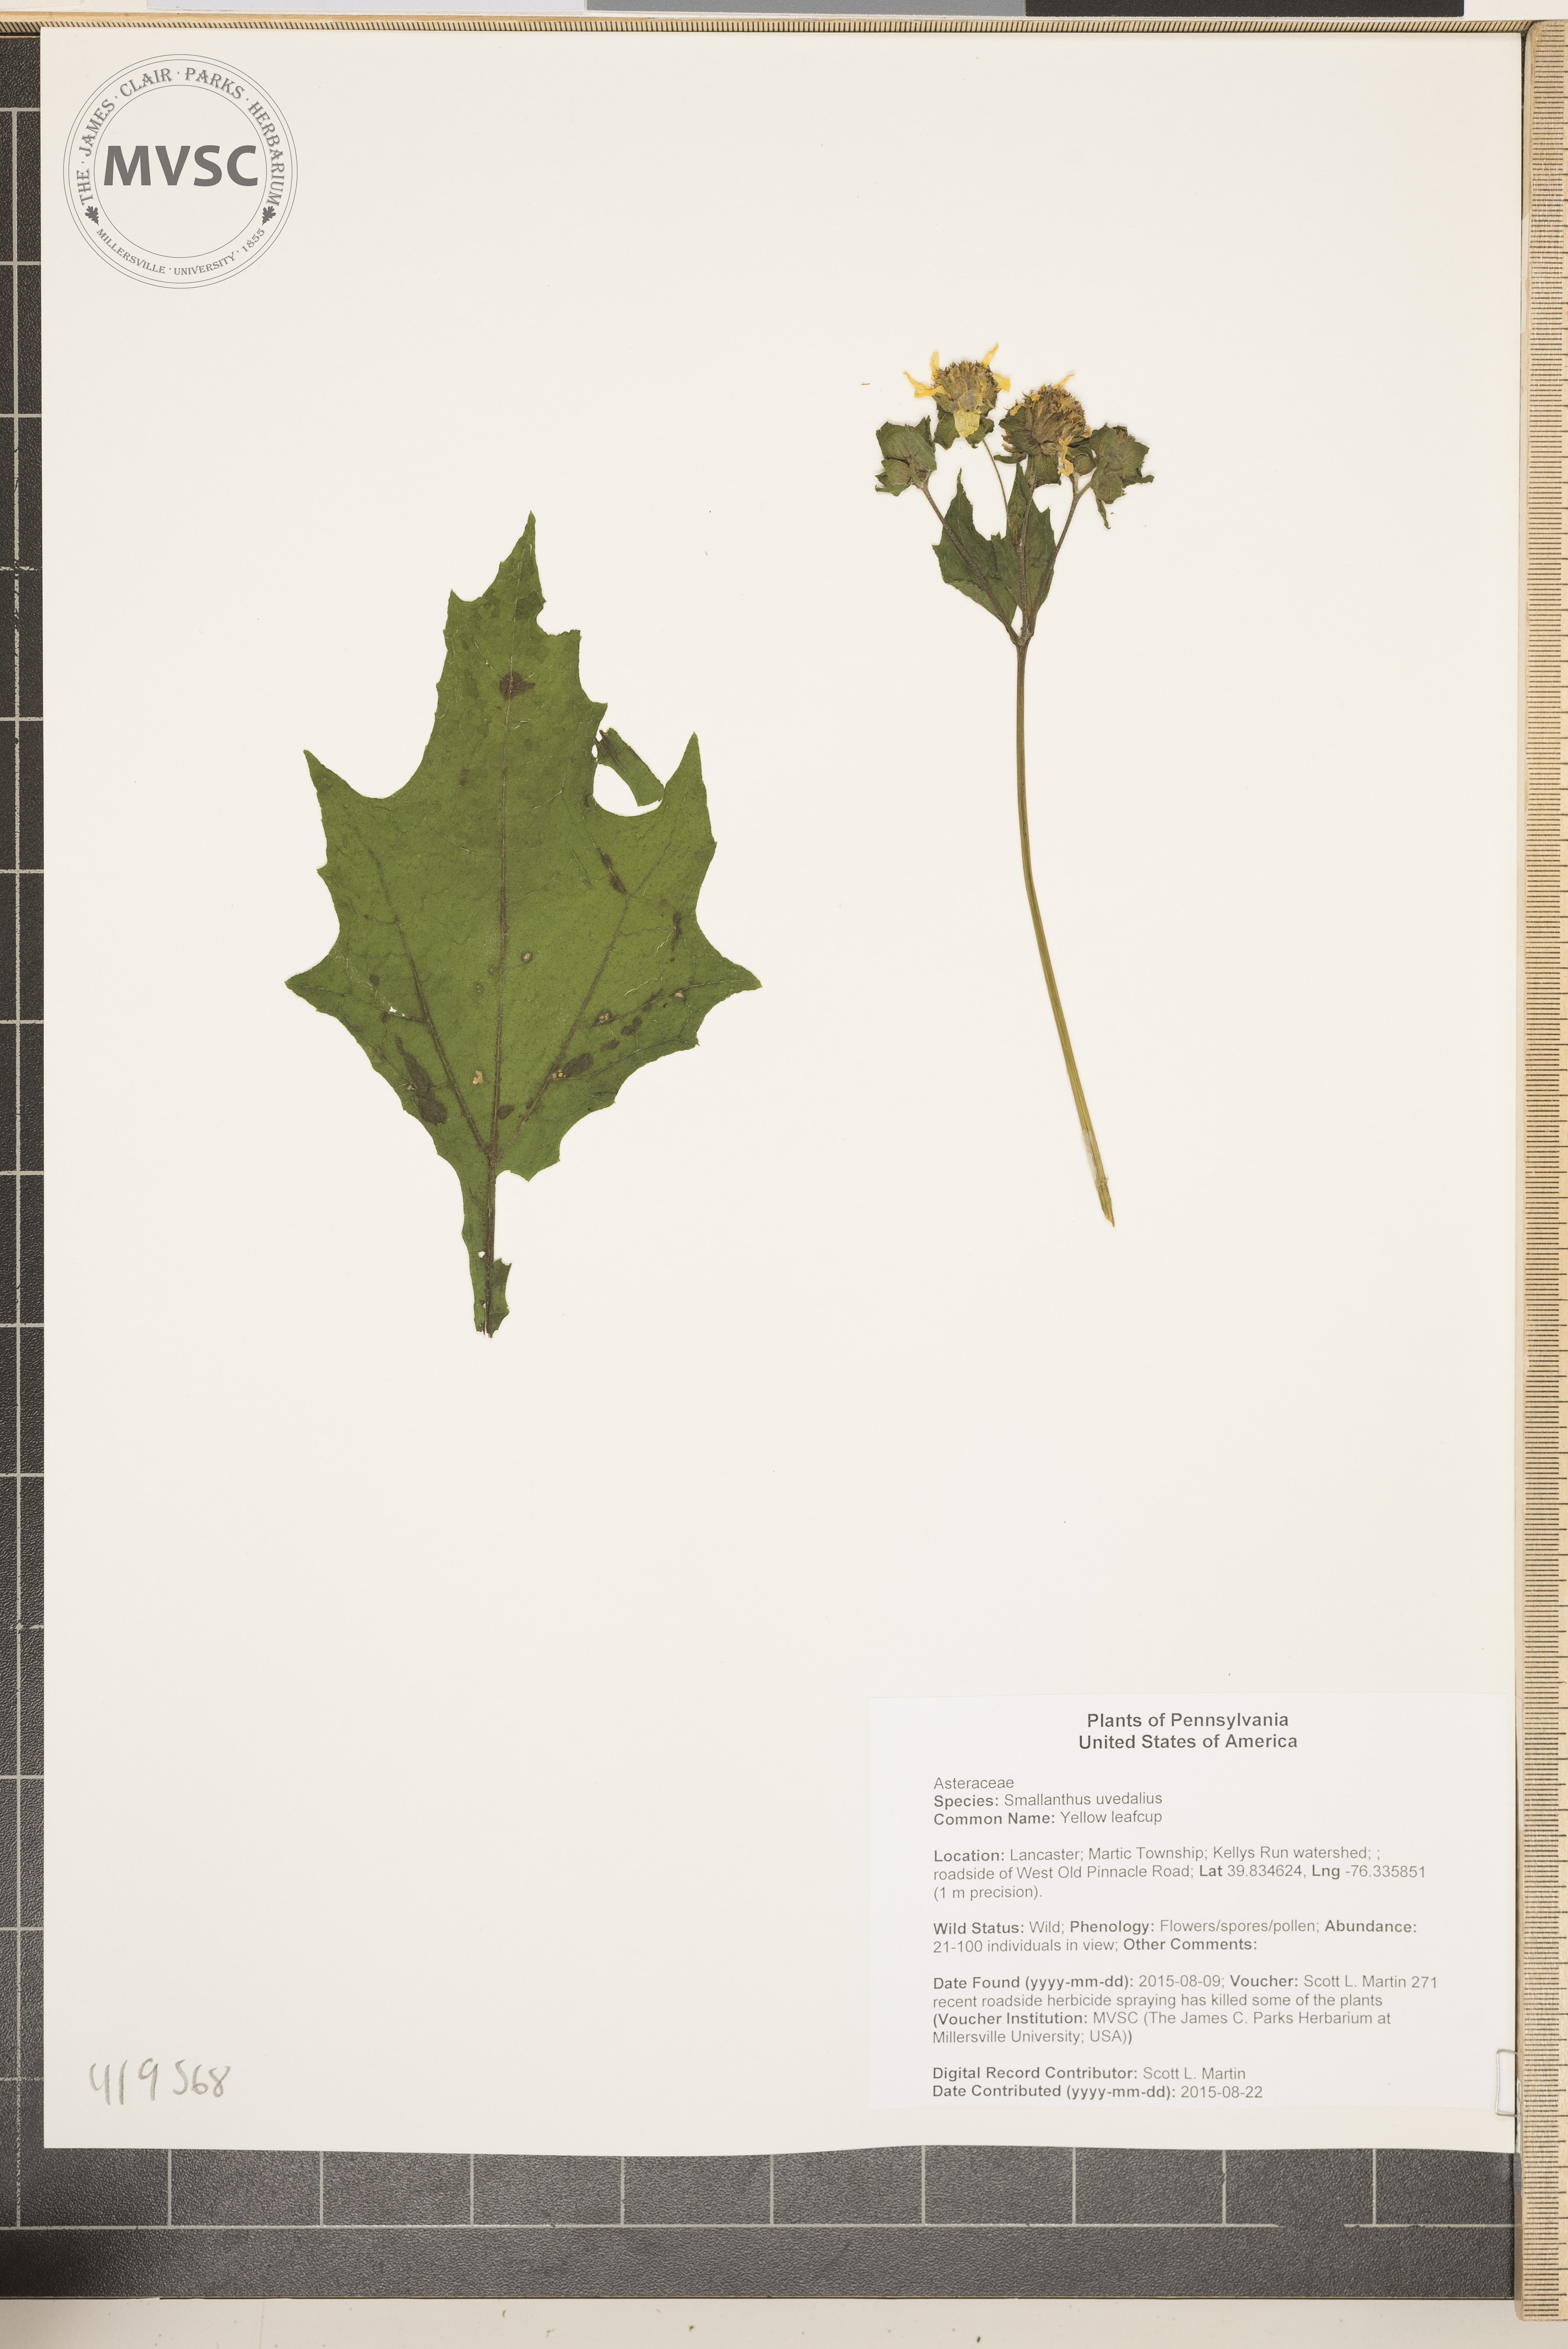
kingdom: Plantae
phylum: Tracheophyta
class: Magnoliopsida
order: Asterales
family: Asteraceae
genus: Smallanthus
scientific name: Smallanthus uvedalia
